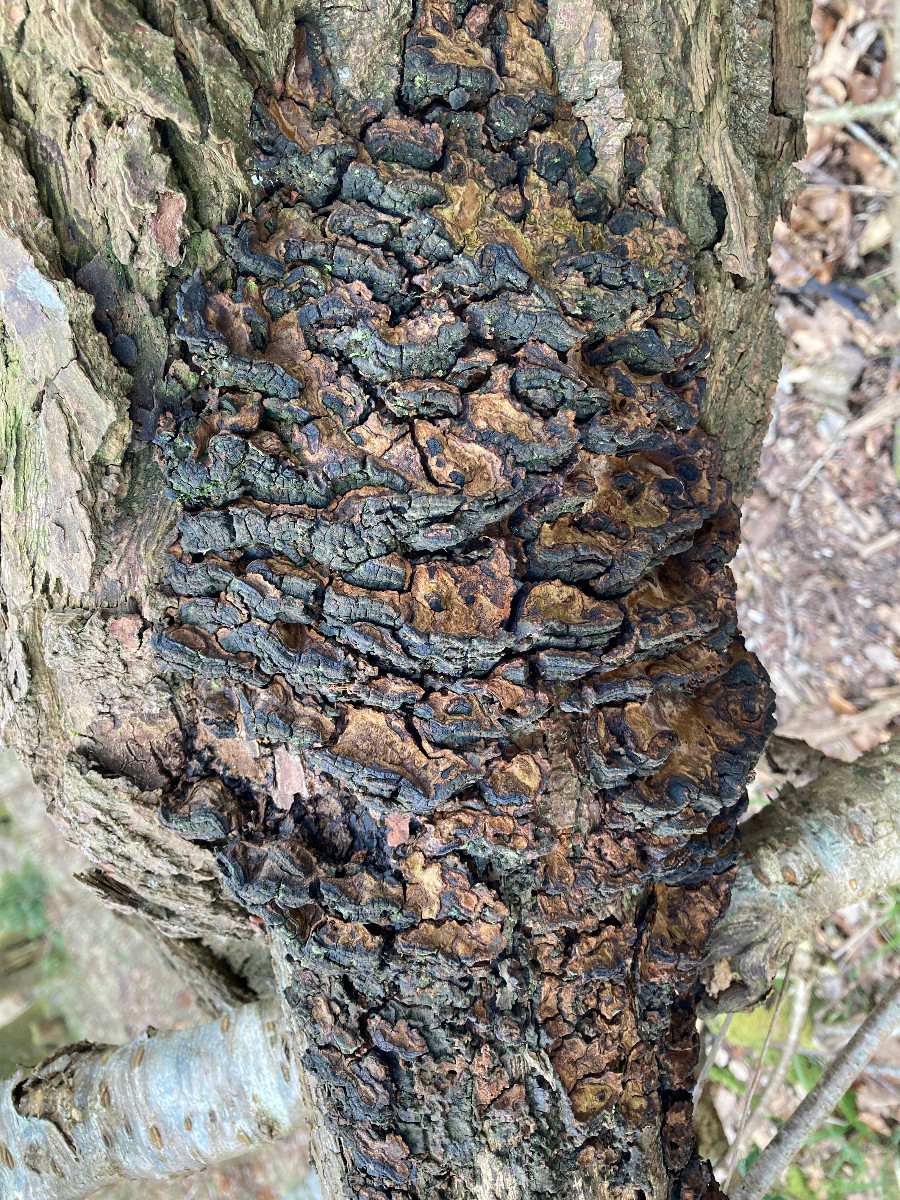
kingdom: Fungi
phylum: Basidiomycota
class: Agaricomycetes
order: Hymenochaetales
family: Hymenochaetaceae
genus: Phellinopsis
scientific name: Phellinopsis conchata
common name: pile-ildporesvamp
